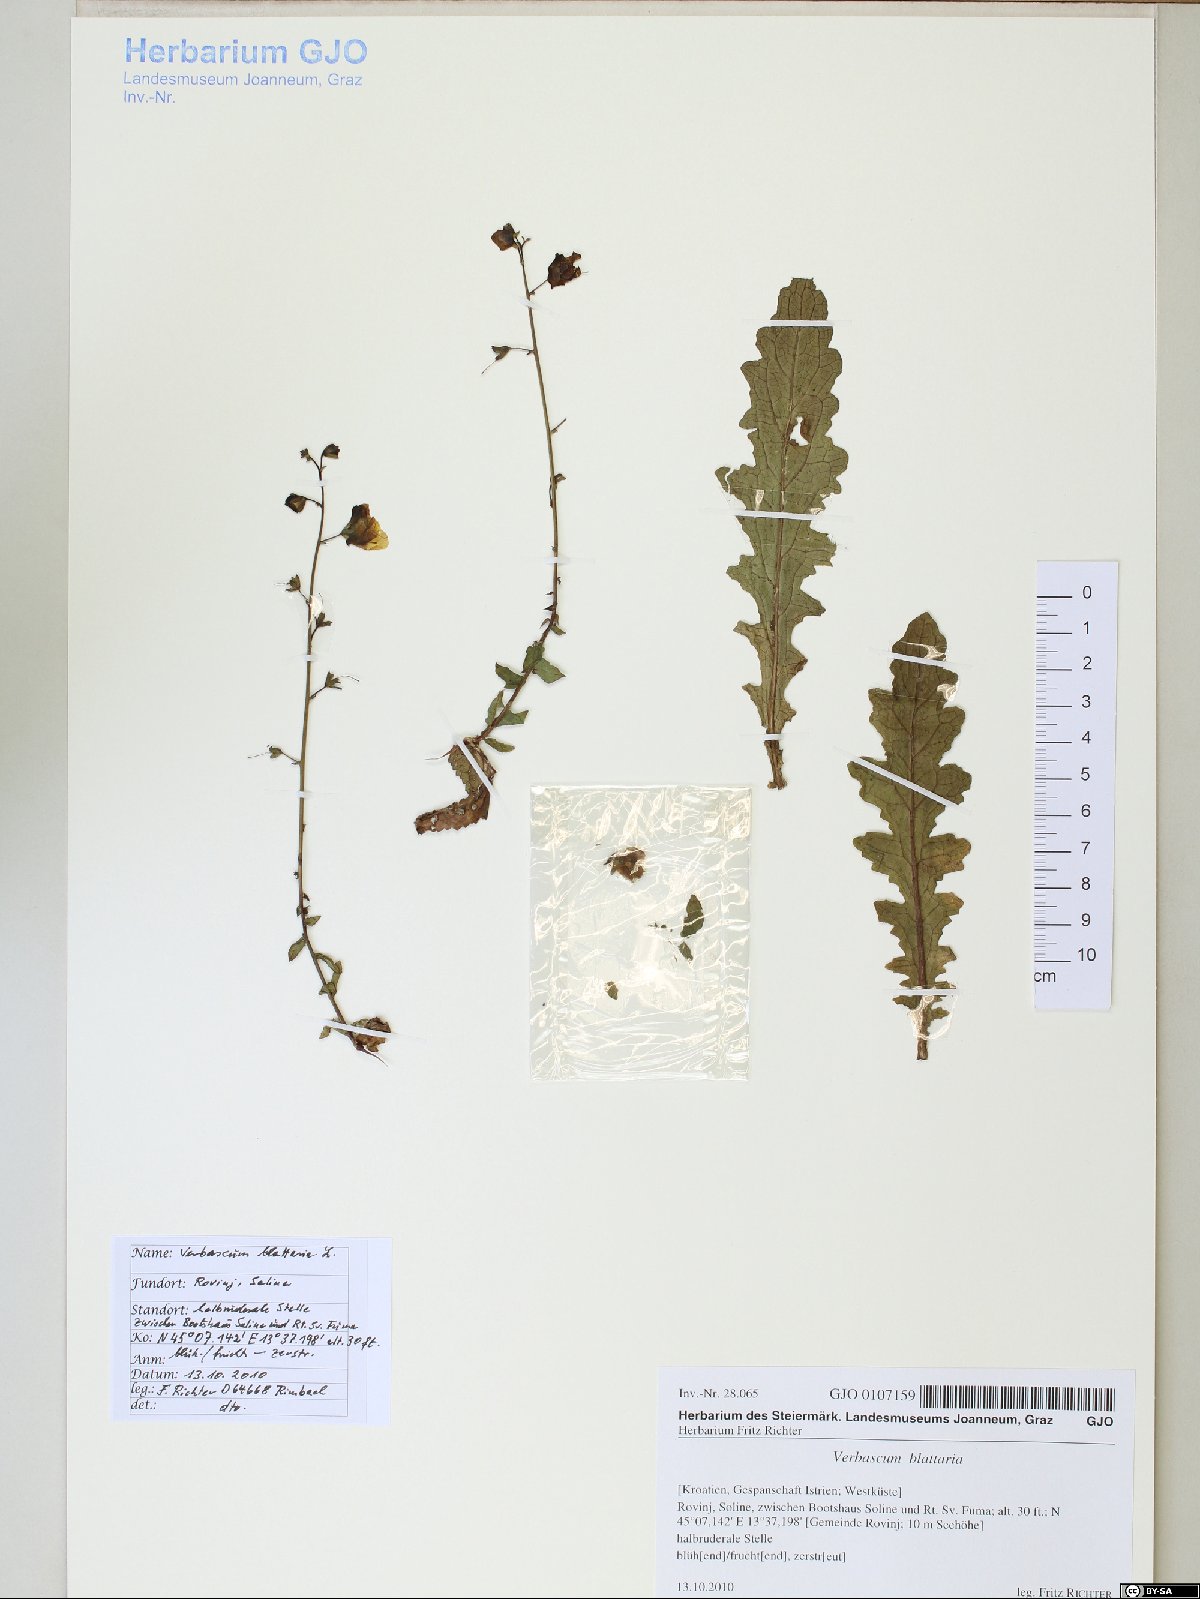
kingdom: Plantae
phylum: Tracheophyta
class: Magnoliopsida
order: Lamiales
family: Scrophulariaceae
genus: Verbascum
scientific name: Verbascum blattaria
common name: Moth mullein
